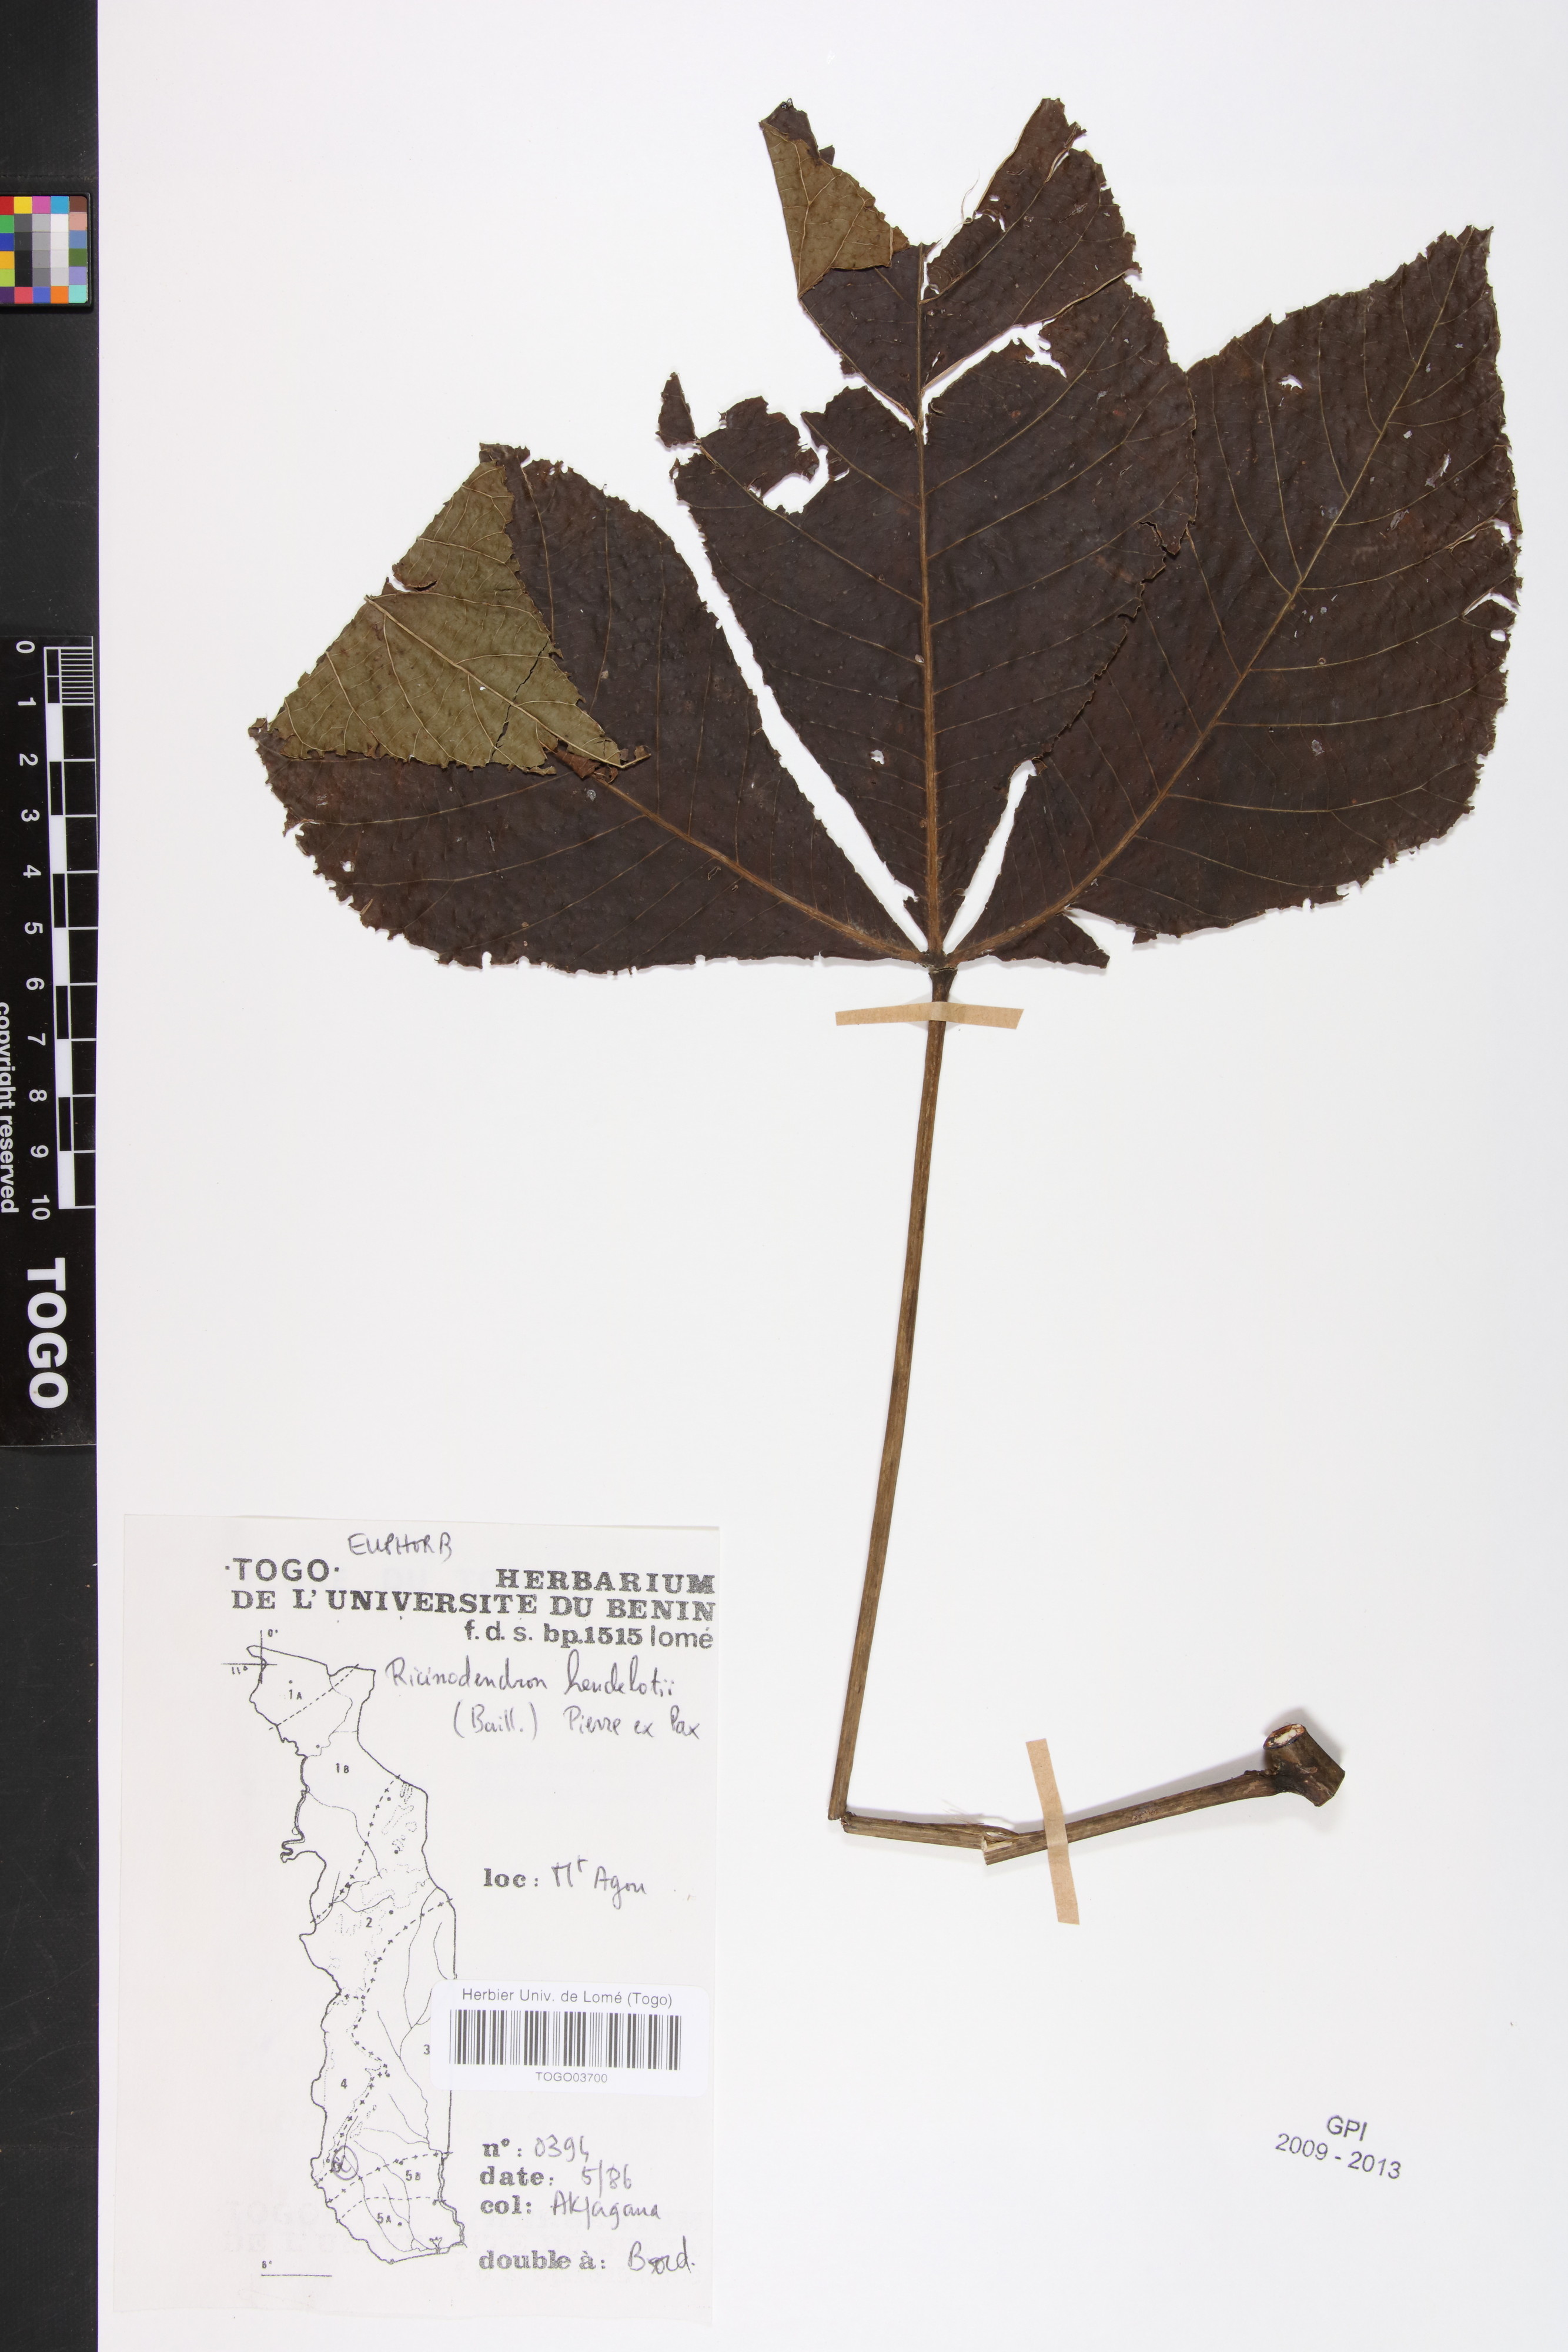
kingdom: Plantae
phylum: Tracheophyta
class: Magnoliopsida
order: Malpighiales
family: Euphorbiaceae
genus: Ricinodendron
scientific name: Ricinodendron heudelotii
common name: African nut-tree
